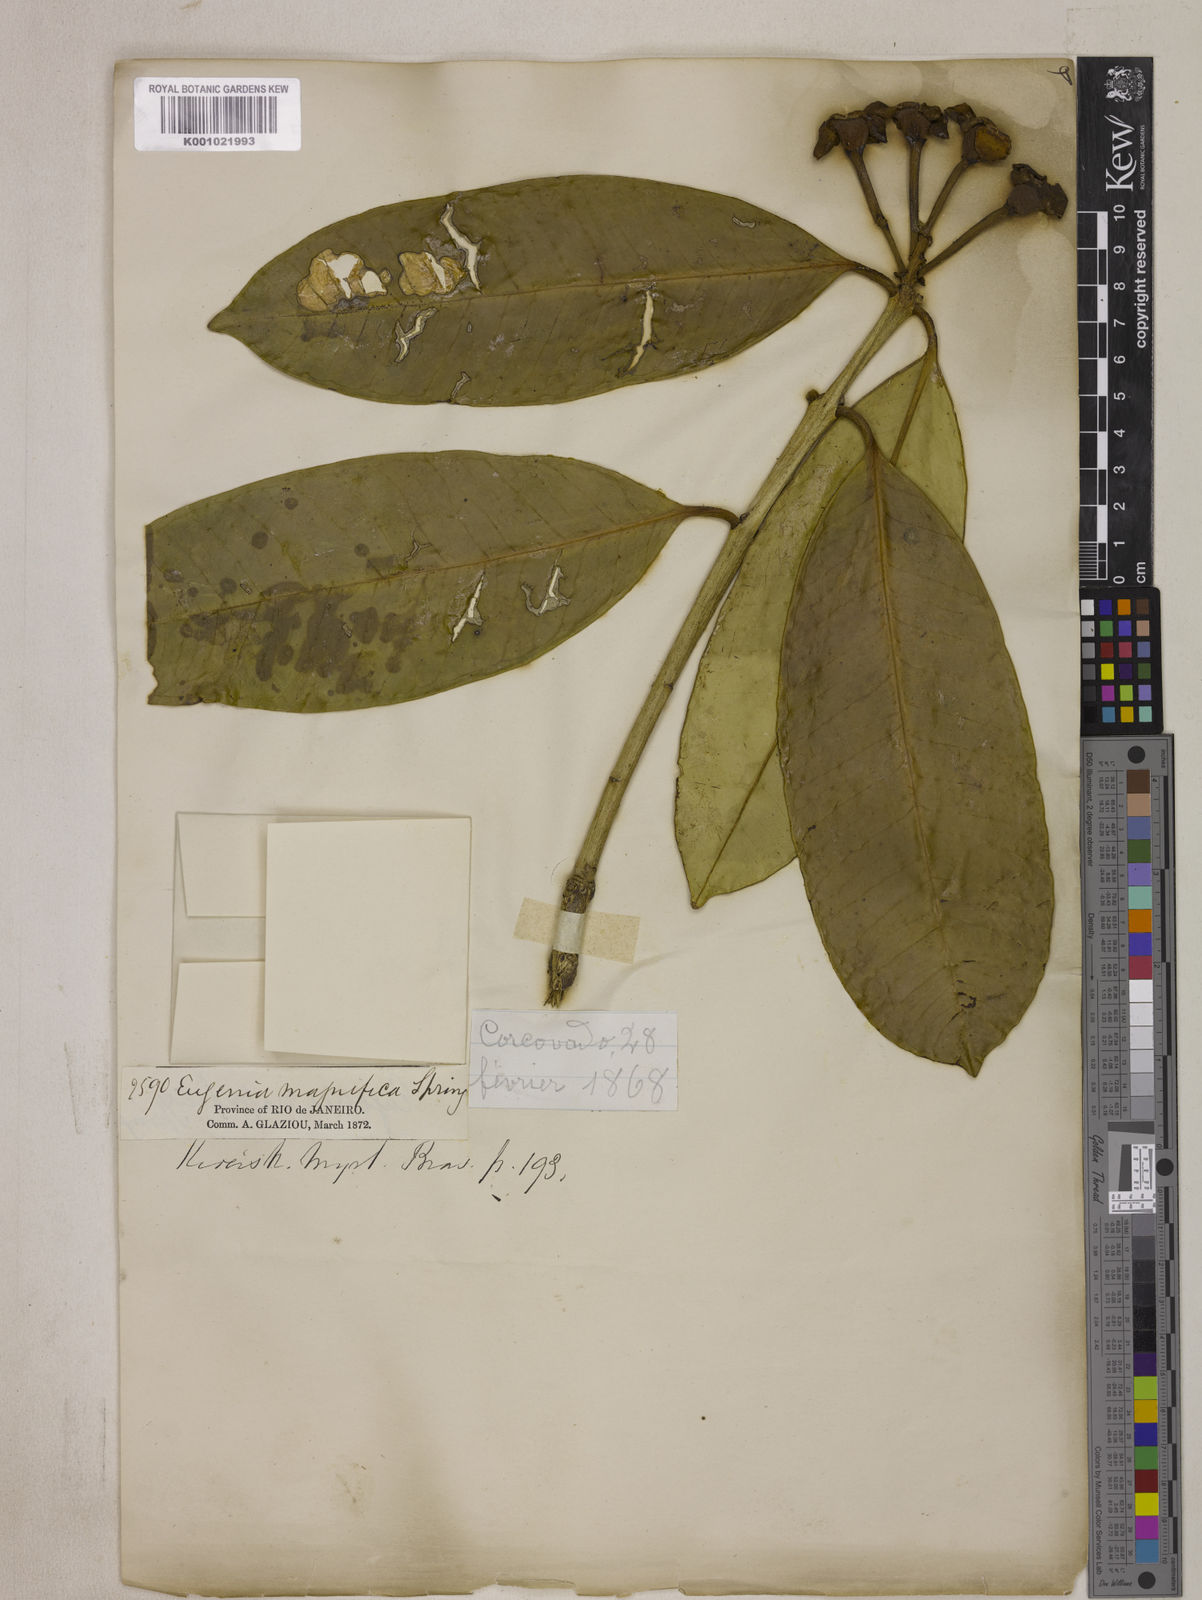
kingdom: Plantae
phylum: Tracheophyta
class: Magnoliopsida
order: Myrtales
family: Myrtaceae
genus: Eugenia
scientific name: Eugenia
